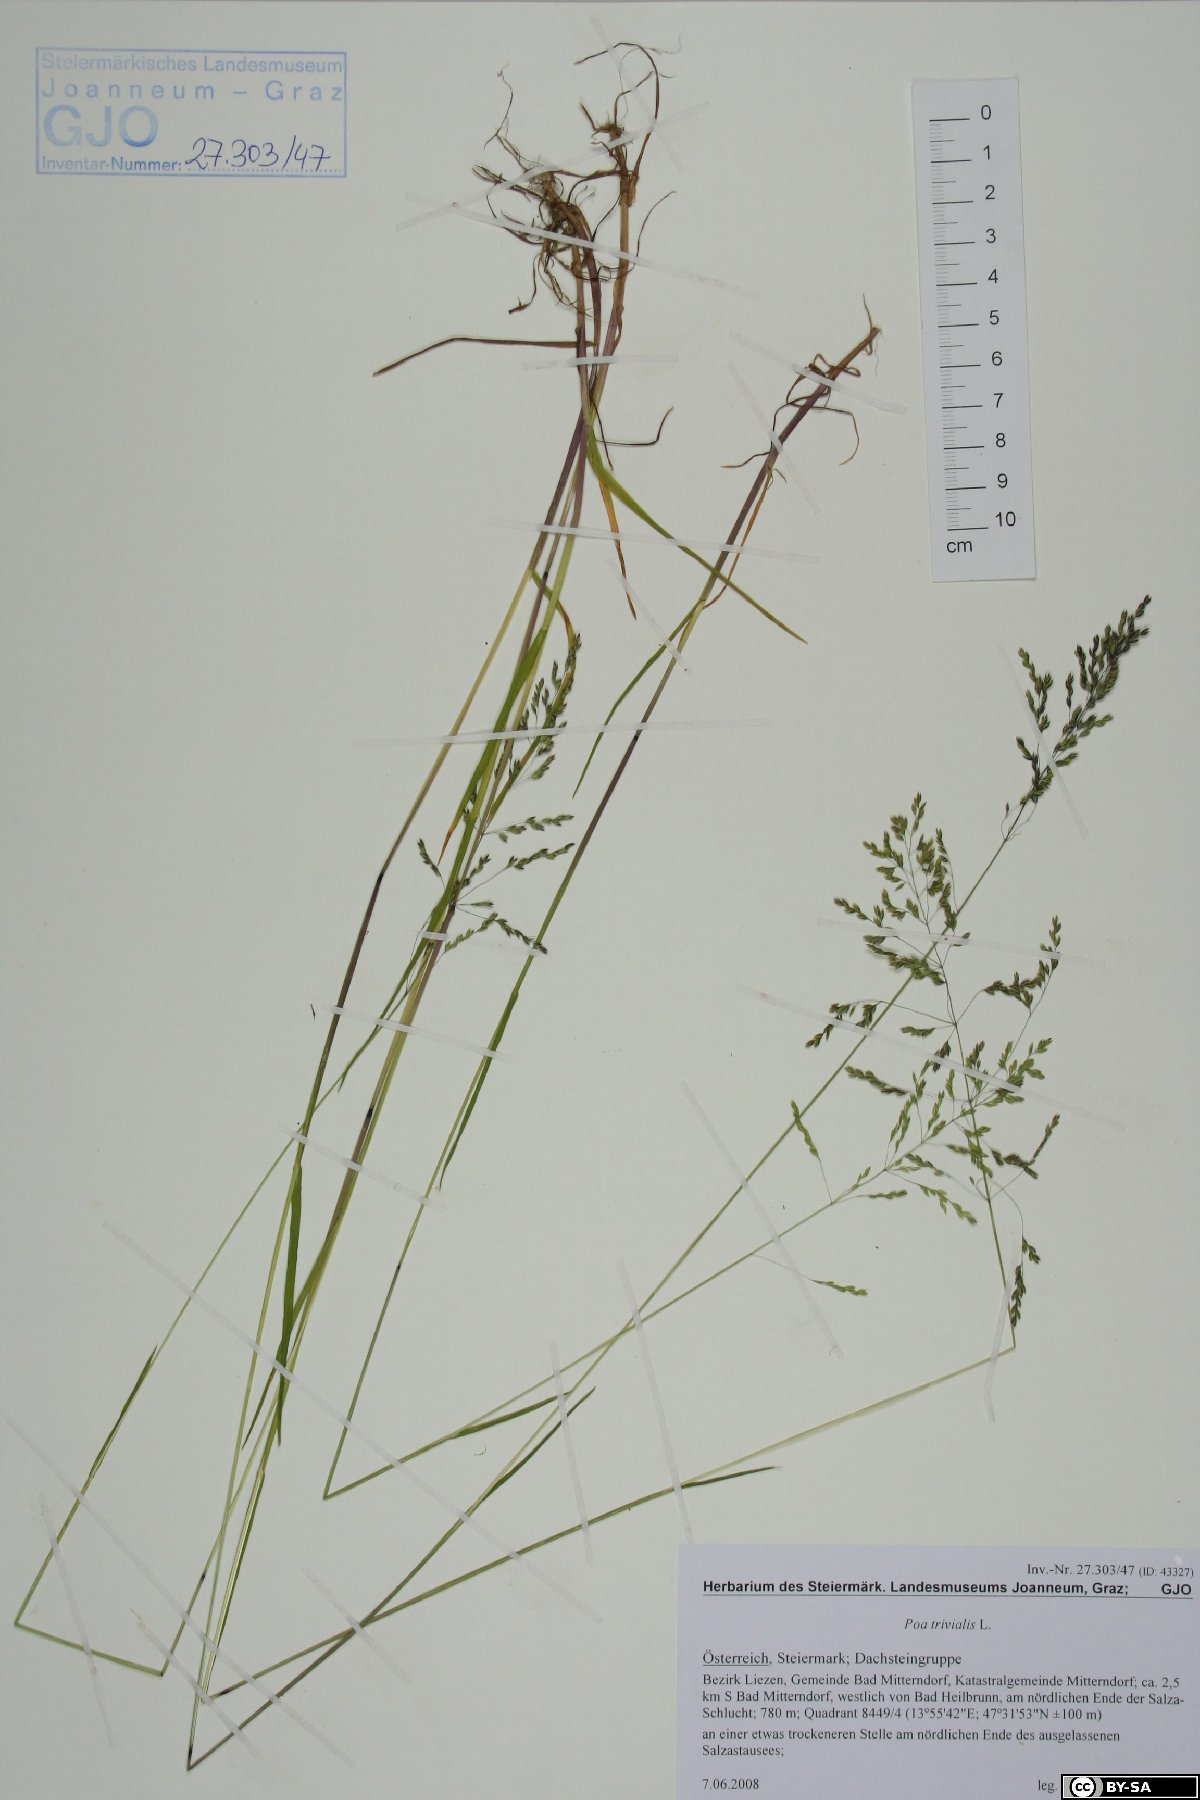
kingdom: Plantae
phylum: Tracheophyta
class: Liliopsida
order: Poales
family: Poaceae
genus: Poa
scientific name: Poa trivialis
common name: Rough bluegrass
